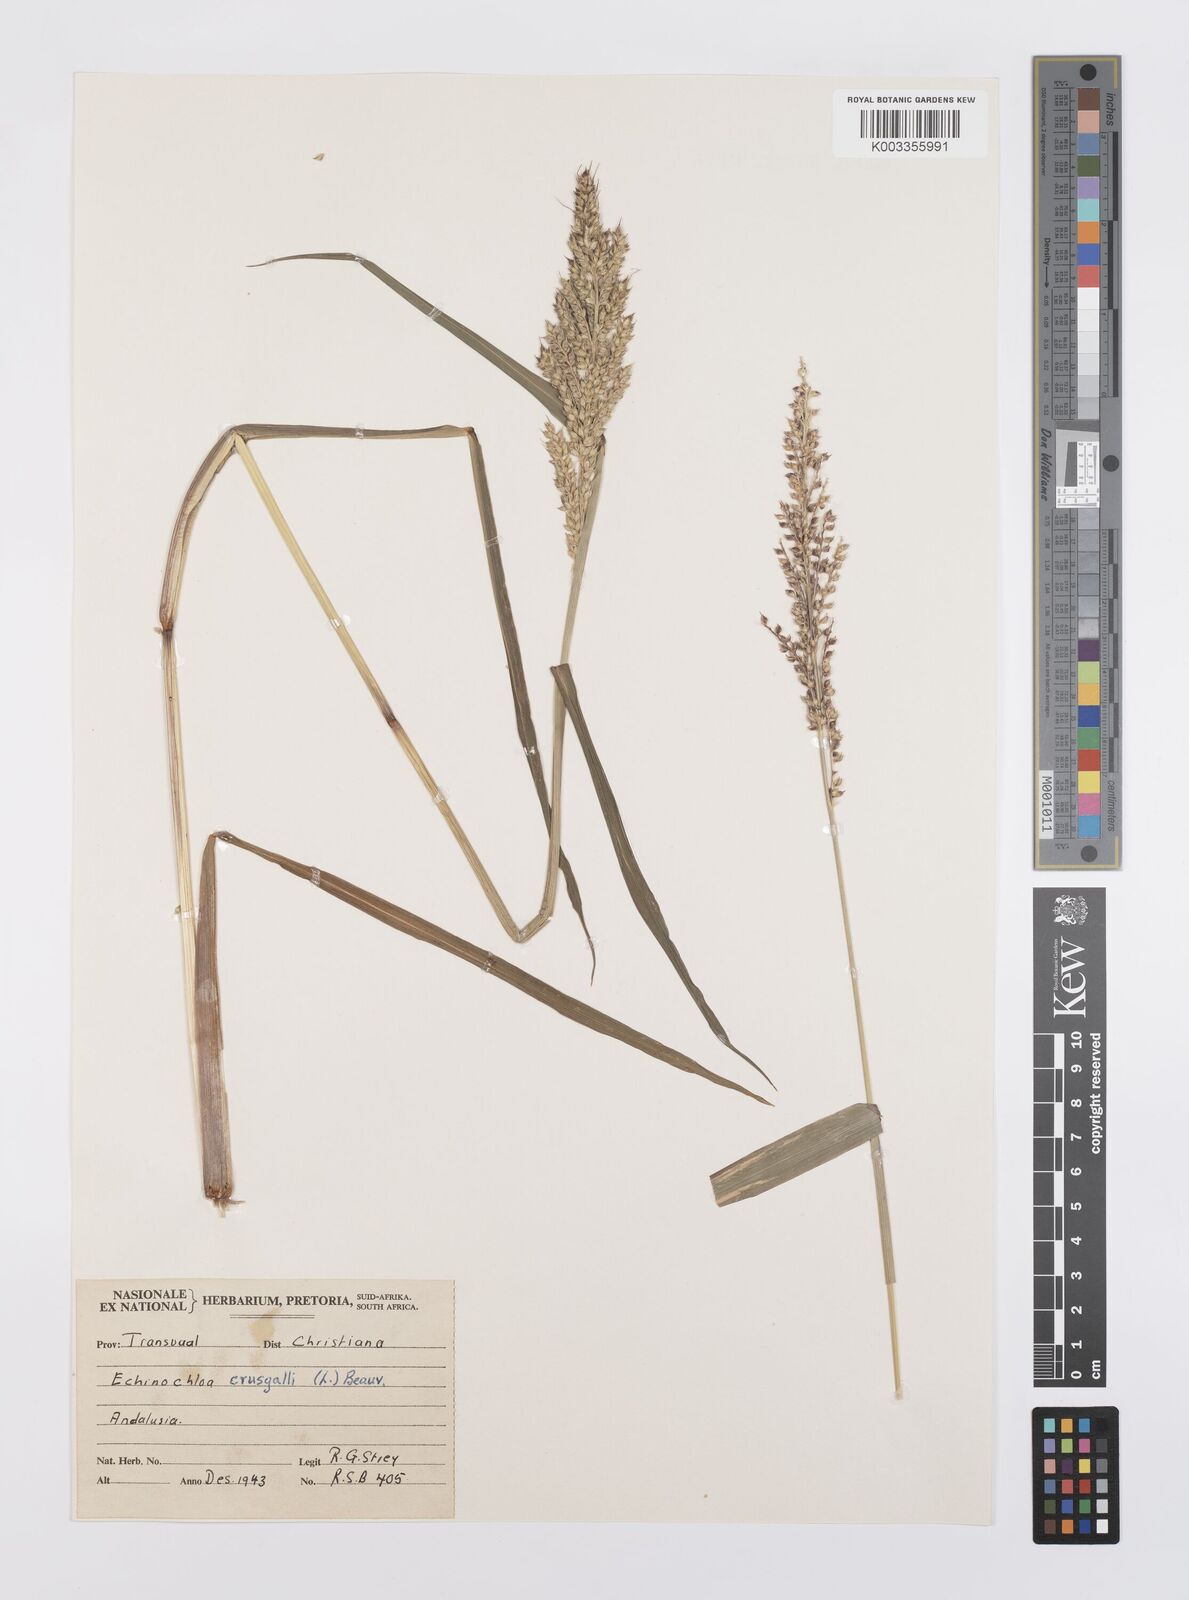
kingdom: Plantae
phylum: Tracheophyta
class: Liliopsida
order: Poales
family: Poaceae
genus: Echinochloa
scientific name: Echinochloa crus-galli
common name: Cockspur
